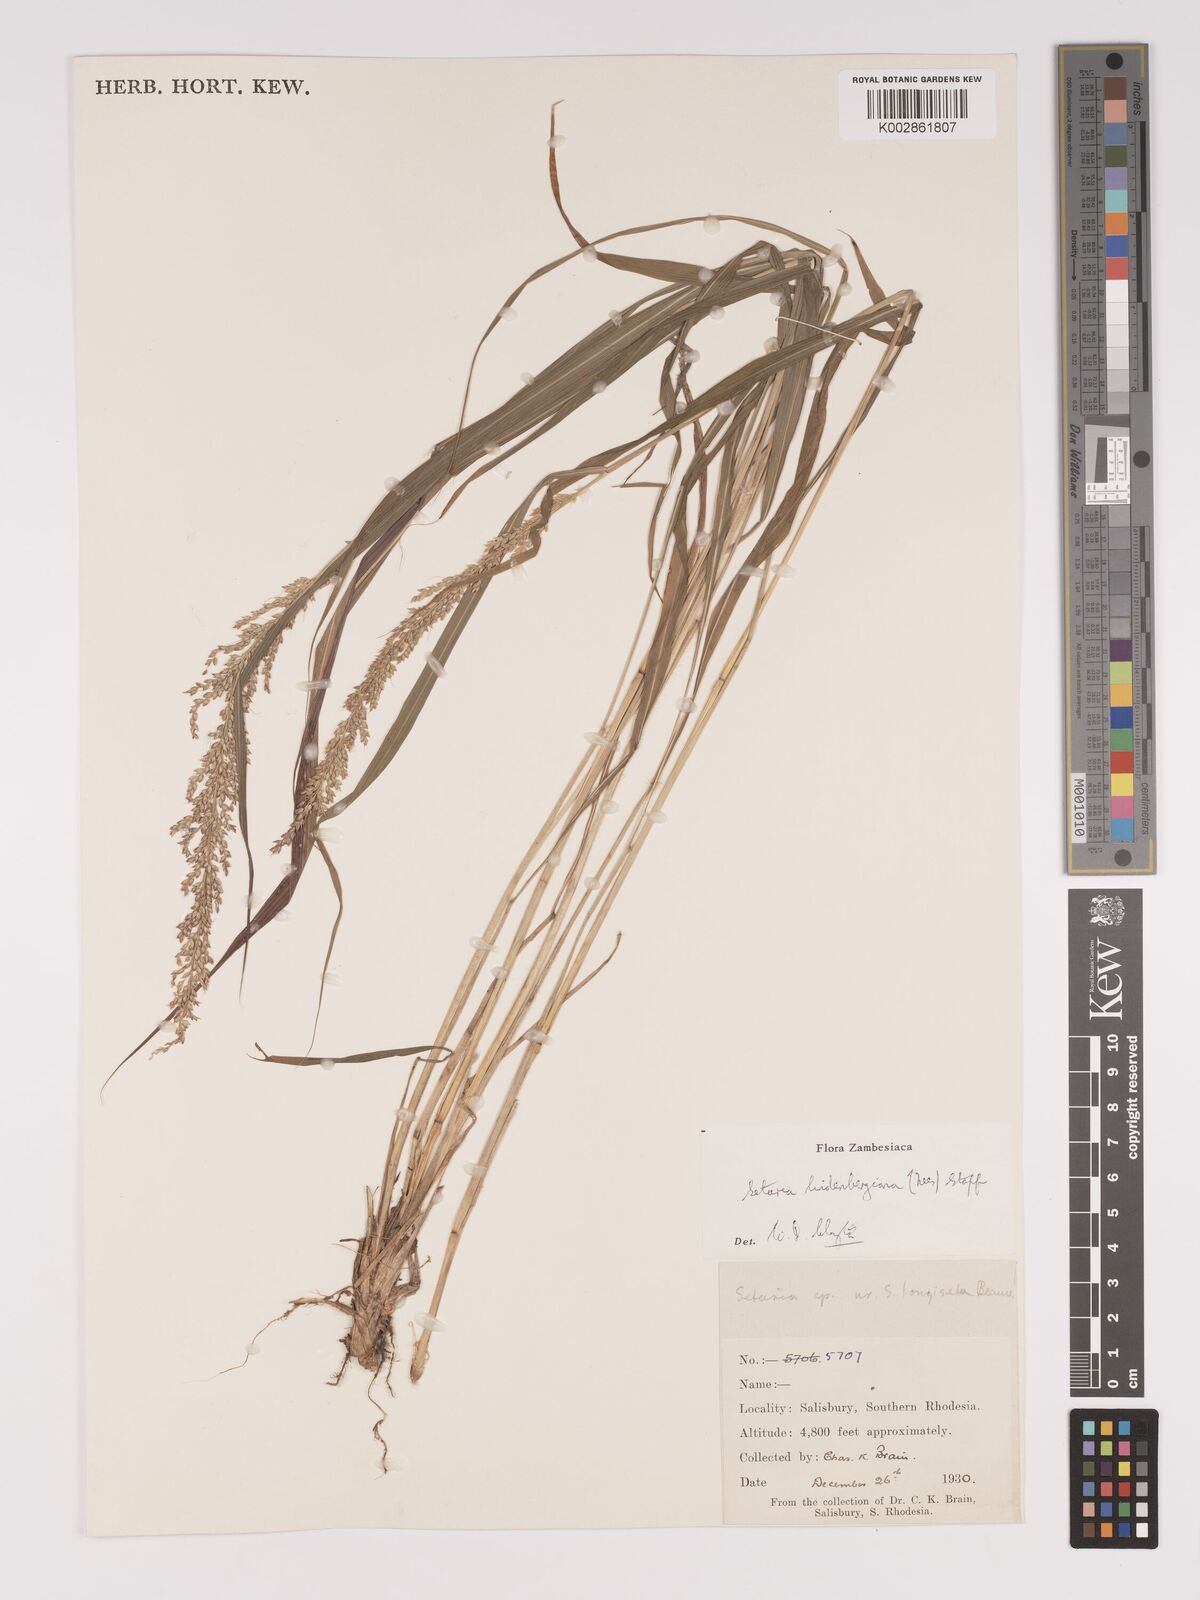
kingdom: Plantae
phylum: Tracheophyta
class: Liliopsida
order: Poales
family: Poaceae
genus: Setaria
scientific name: Setaria lindenbergiana
